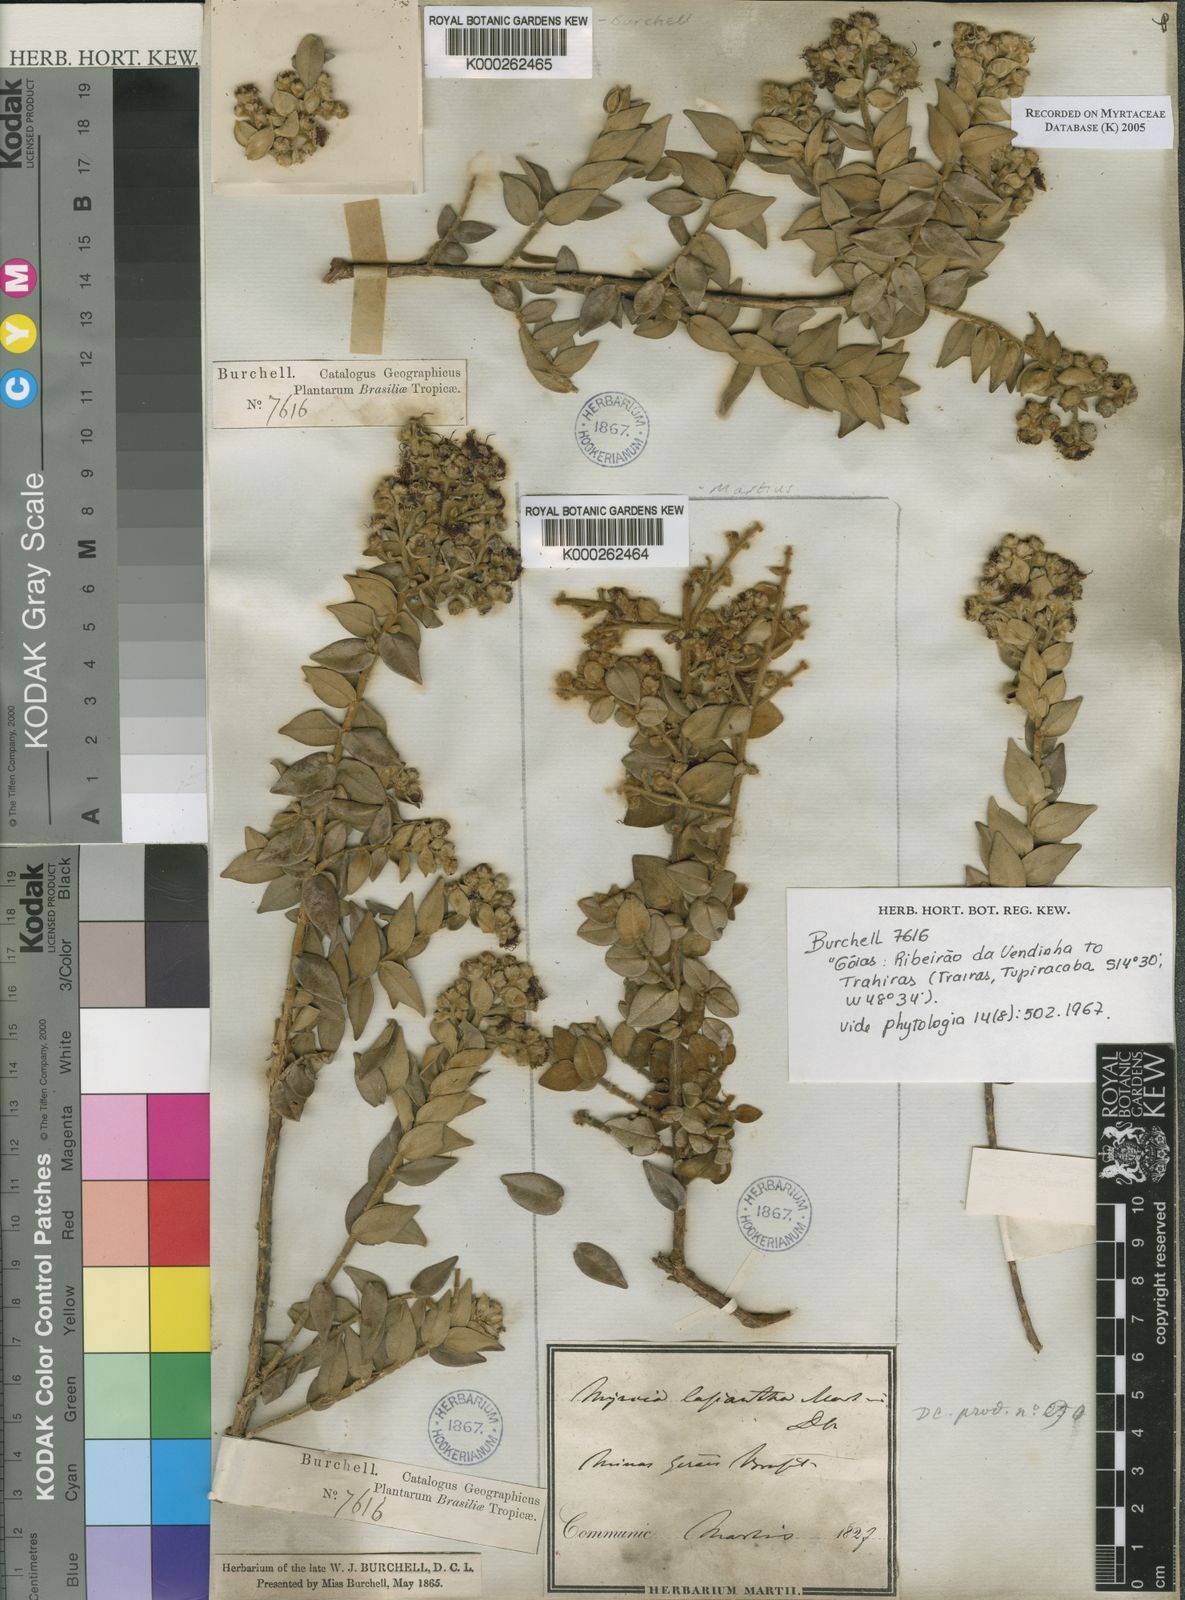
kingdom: Plantae
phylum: Tracheophyta
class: Magnoliopsida
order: Myrtales
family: Myrtaceae
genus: Myrcia
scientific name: Myrcia lasiantha
